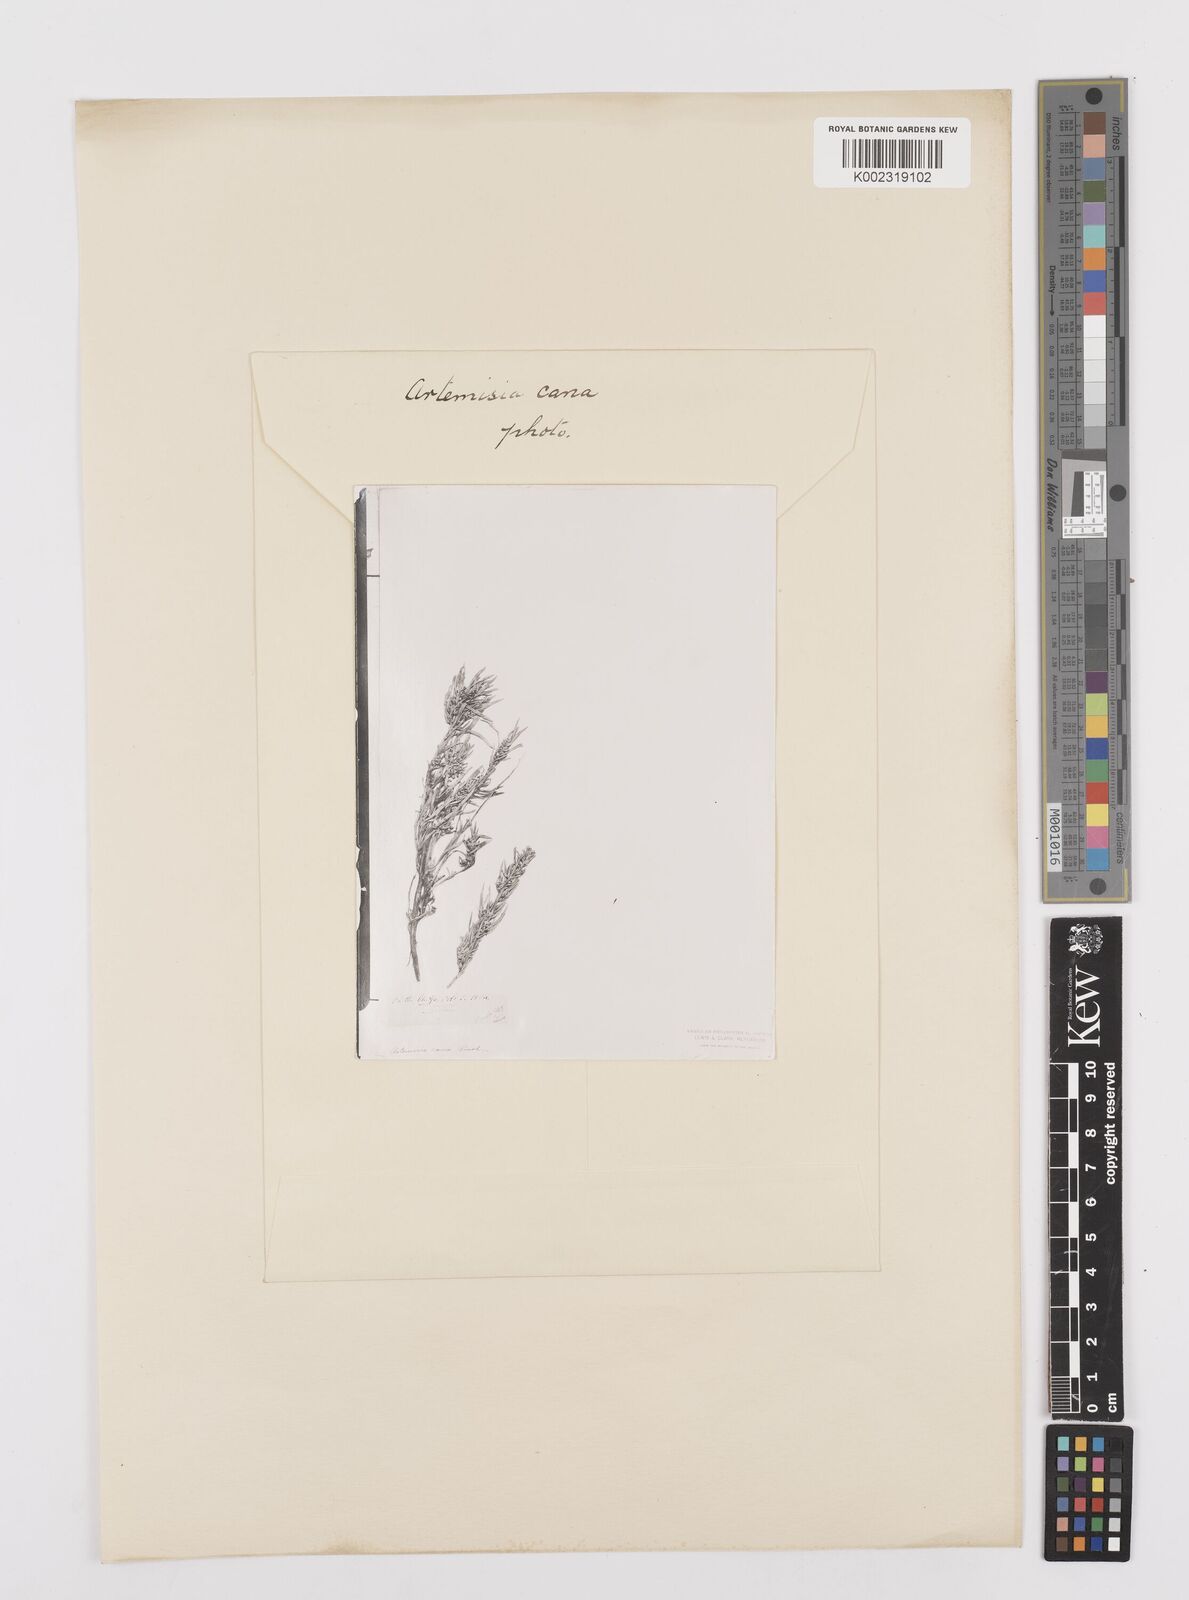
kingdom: Plantae
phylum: Tracheophyta
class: Magnoliopsida
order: Asterales
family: Asteraceae
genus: Artemisia
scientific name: Artemisia cana
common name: Silver sagebrush
